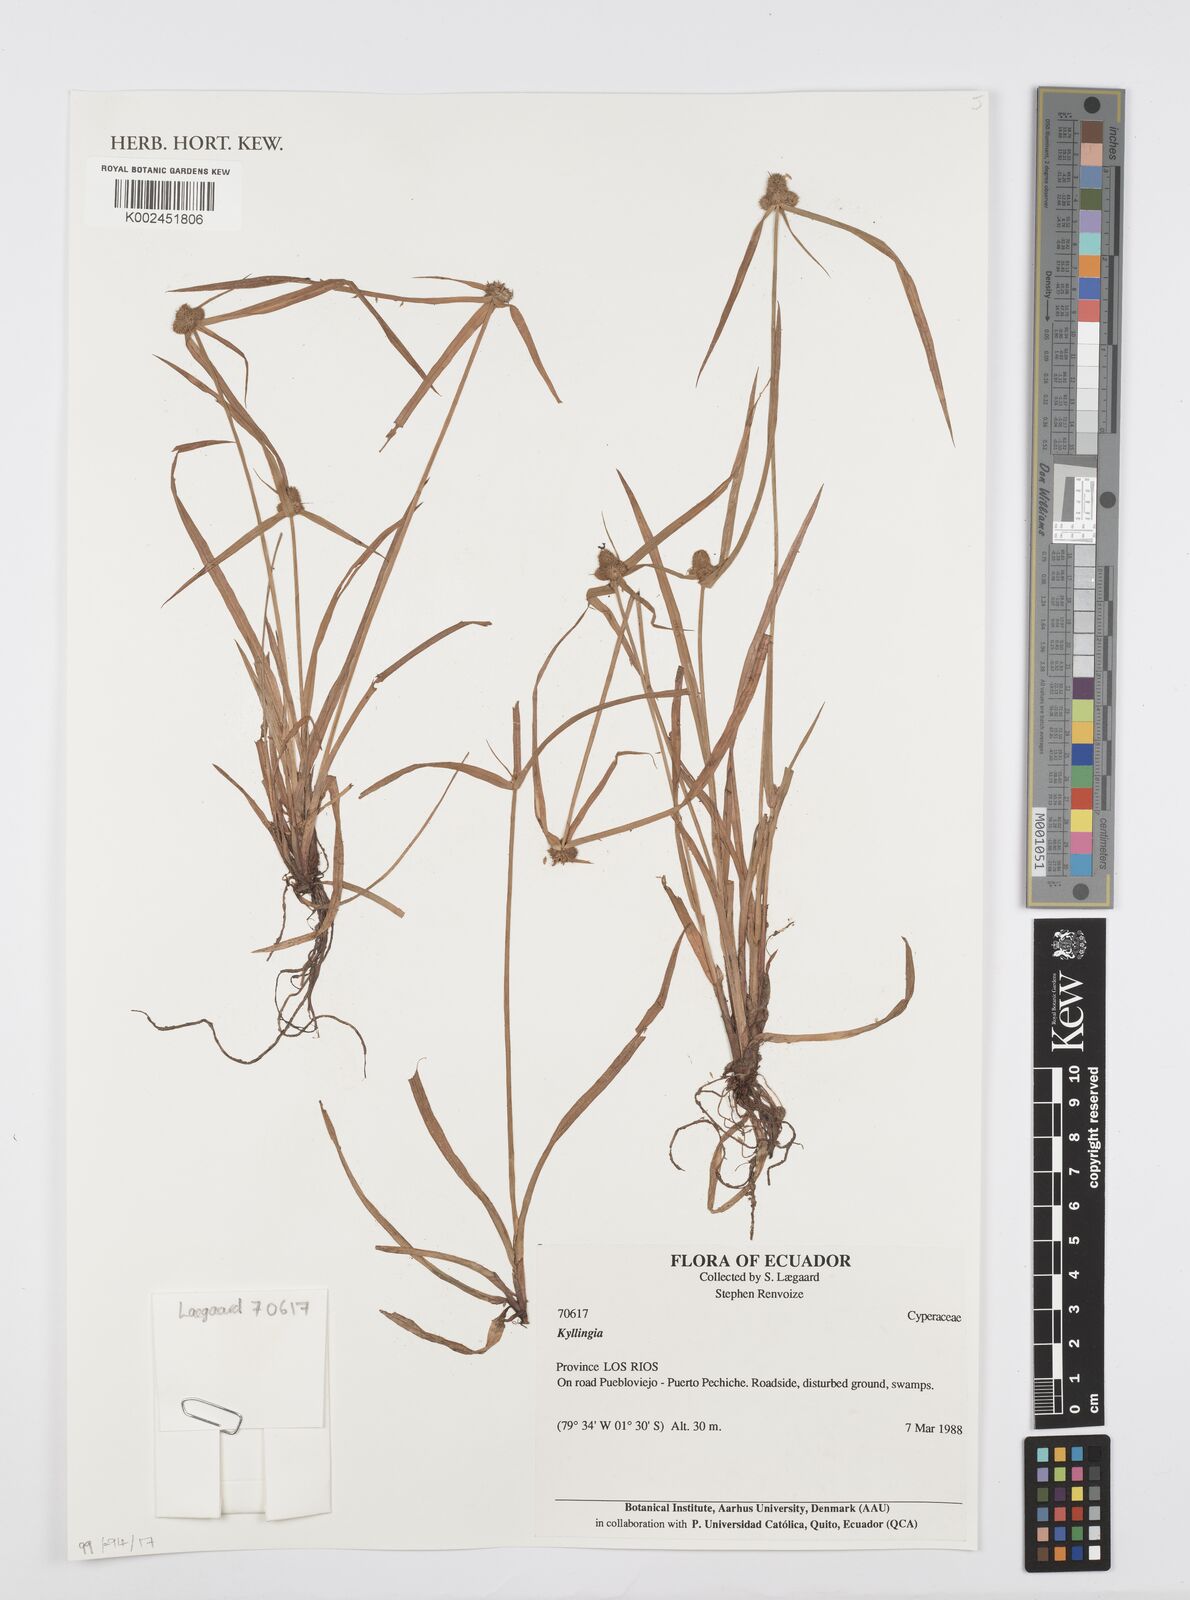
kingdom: Plantae
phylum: Tracheophyta
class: Liliopsida
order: Poales
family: Cyperaceae
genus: Cyperus
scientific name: Cyperus
